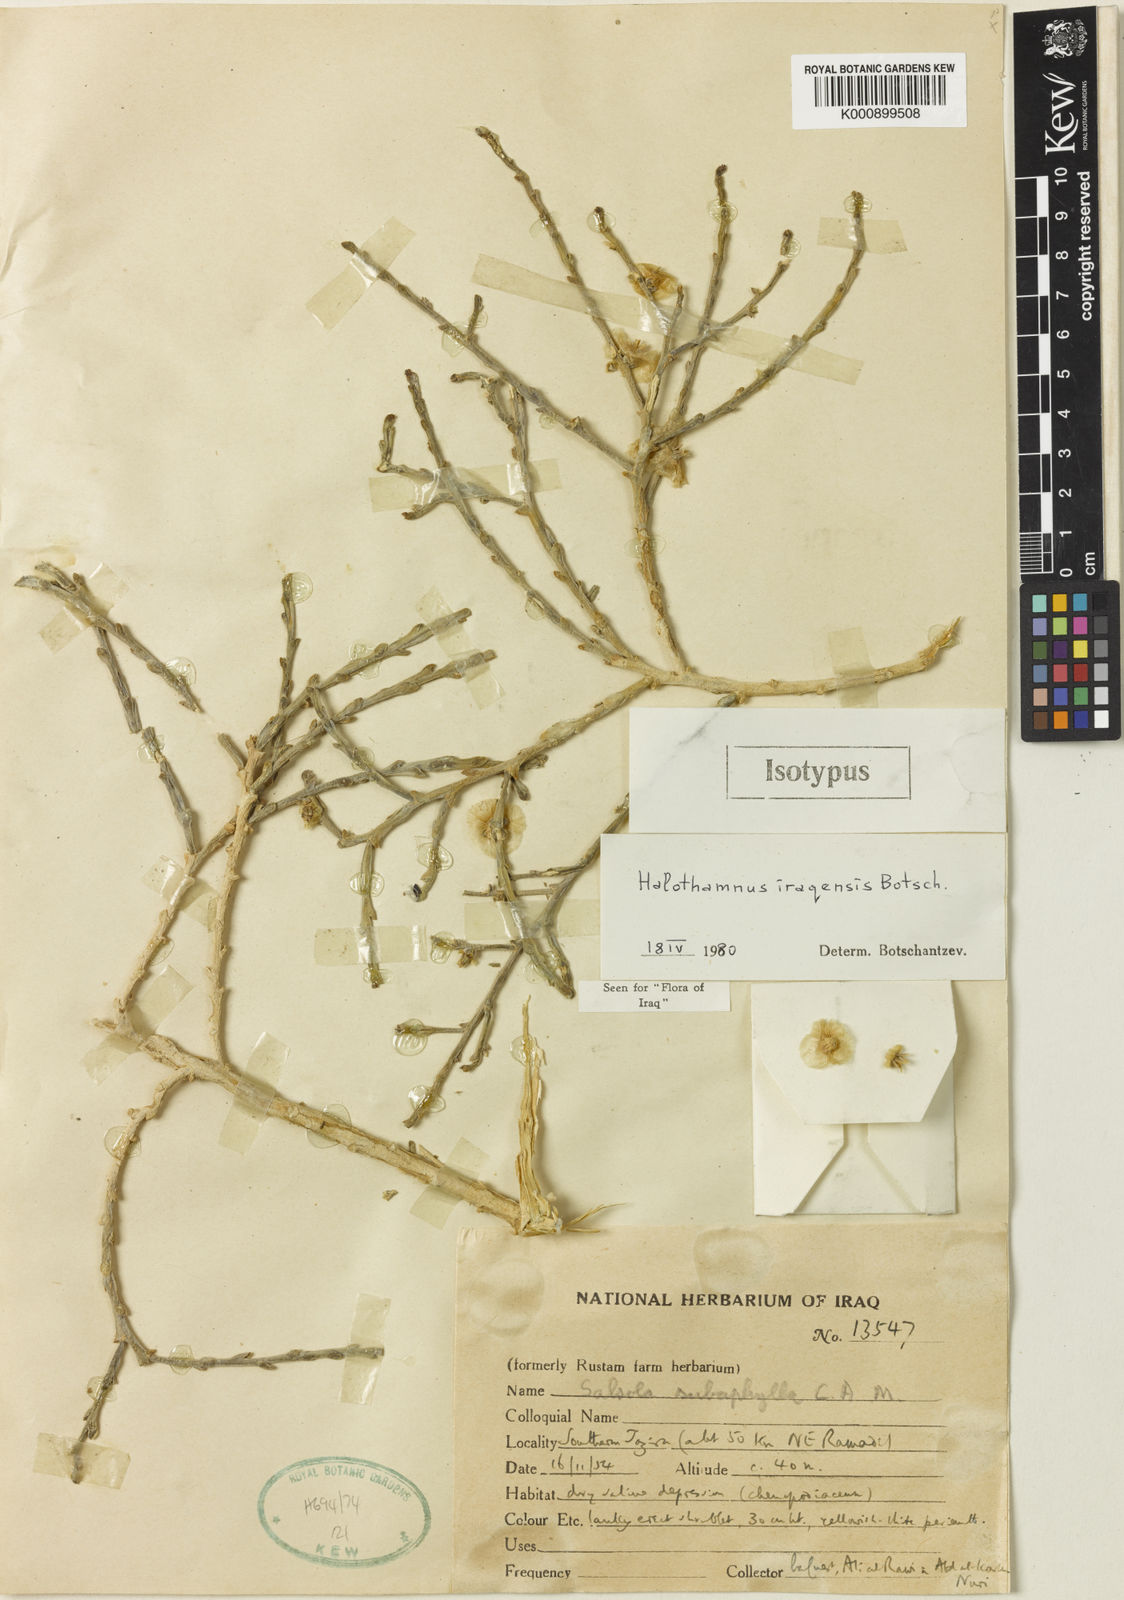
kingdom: Plantae
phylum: Tracheophyta
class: Magnoliopsida
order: Caryophyllales
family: Amaranthaceae
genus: Halothamnus
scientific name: Halothamnus iraqensis
